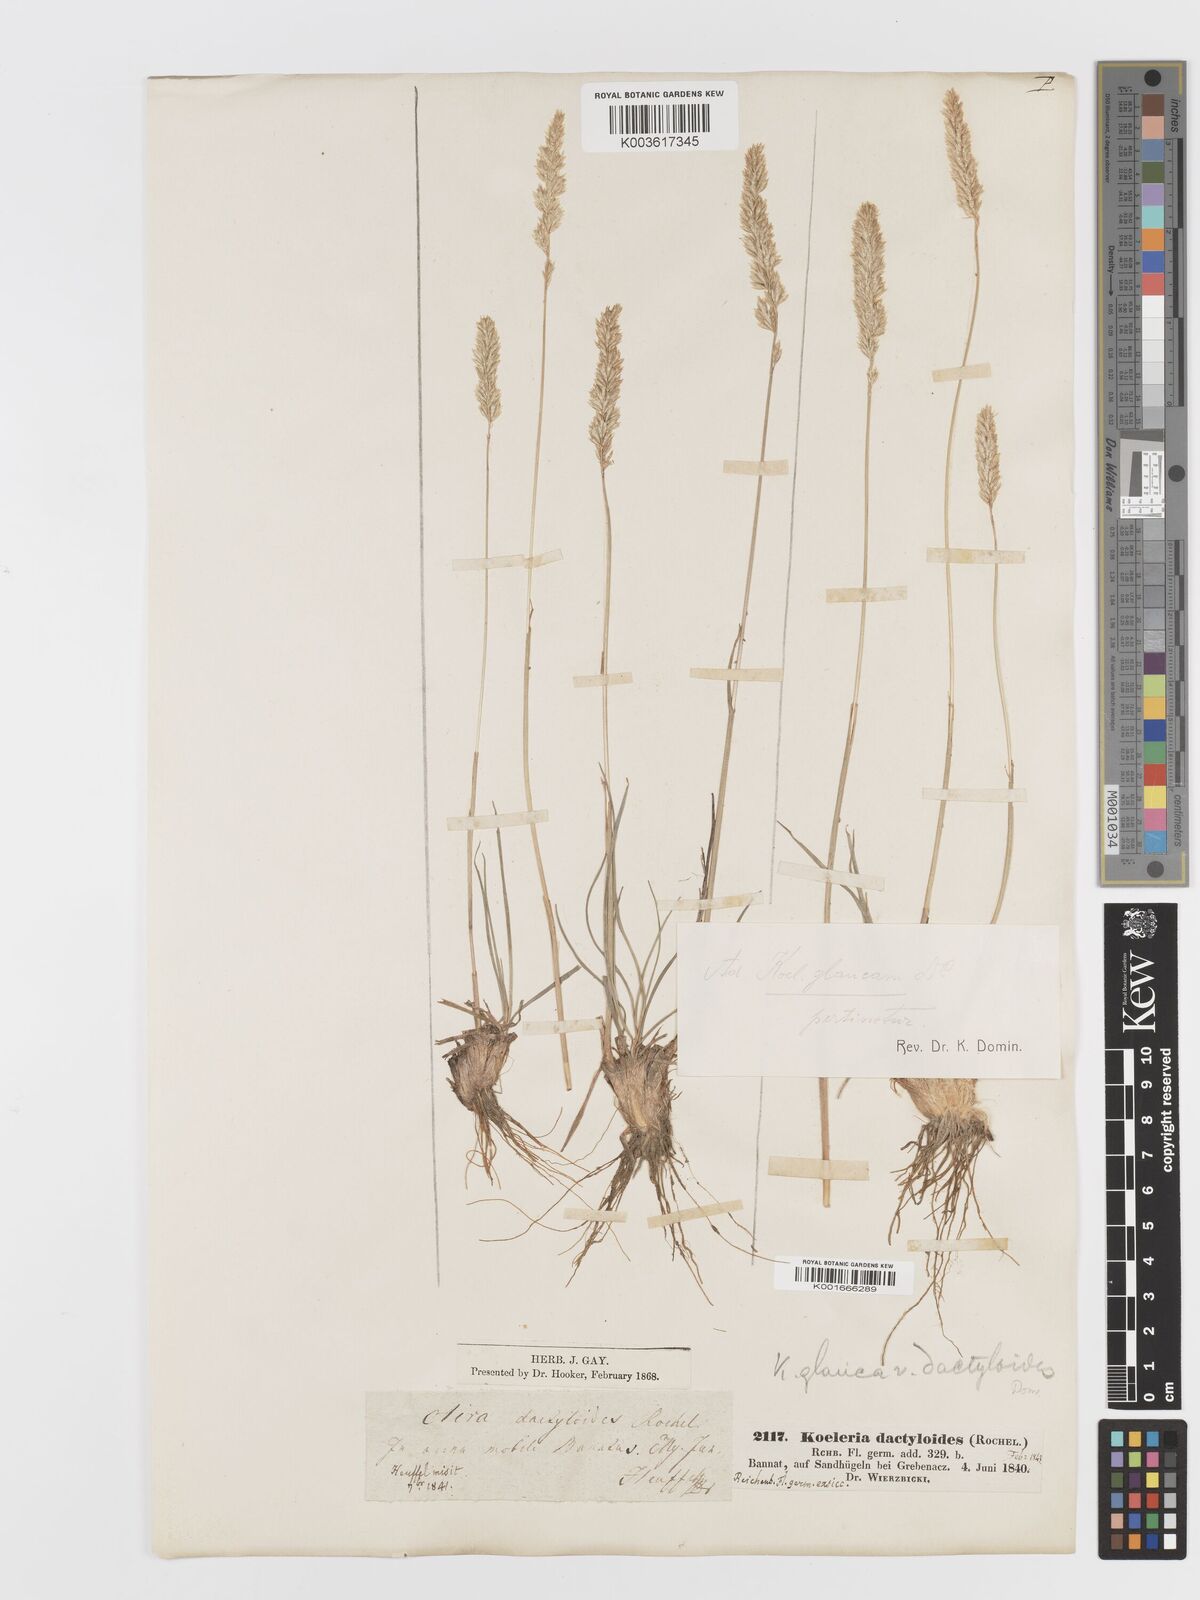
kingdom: Plantae
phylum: Tracheophyta
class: Liliopsida
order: Poales
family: Poaceae
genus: Koeleria
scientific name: Koeleria glauca
